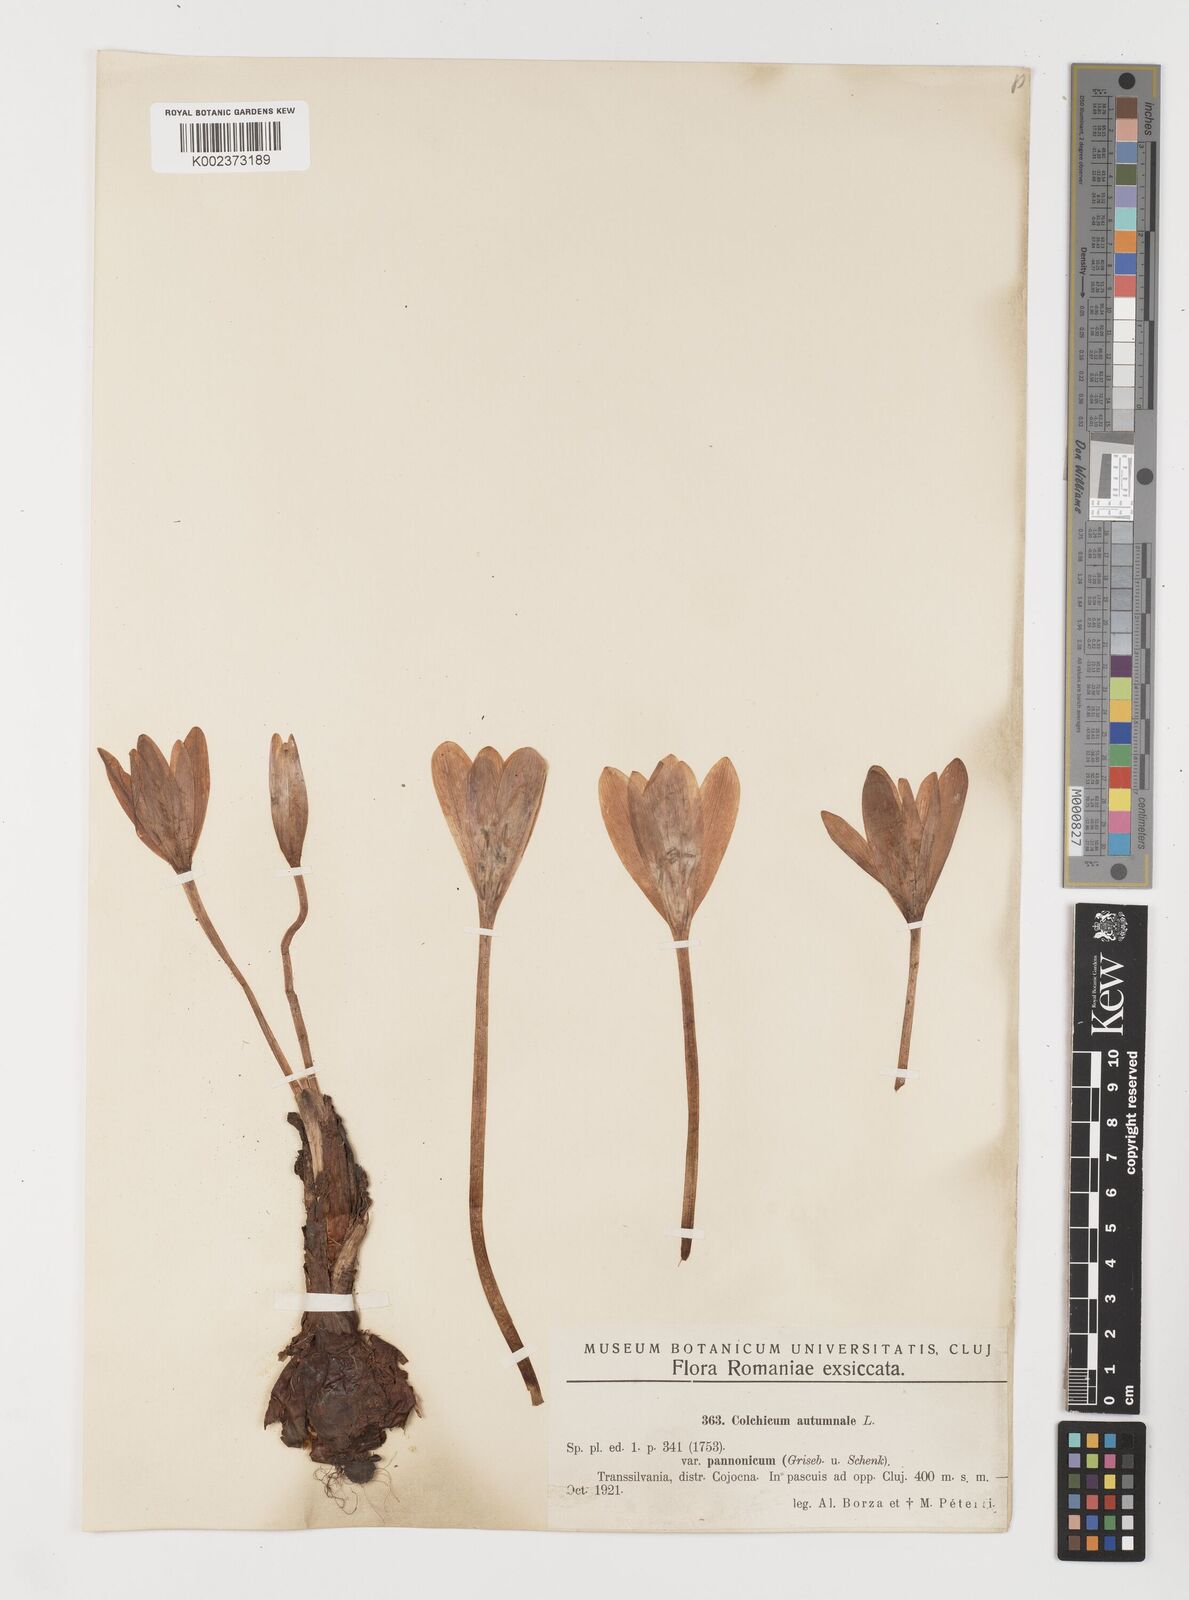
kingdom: Plantae
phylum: Tracheophyta
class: Liliopsida
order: Liliales
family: Colchicaceae
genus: Colchicum
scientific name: Colchicum autumnale
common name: Autumn crocus
